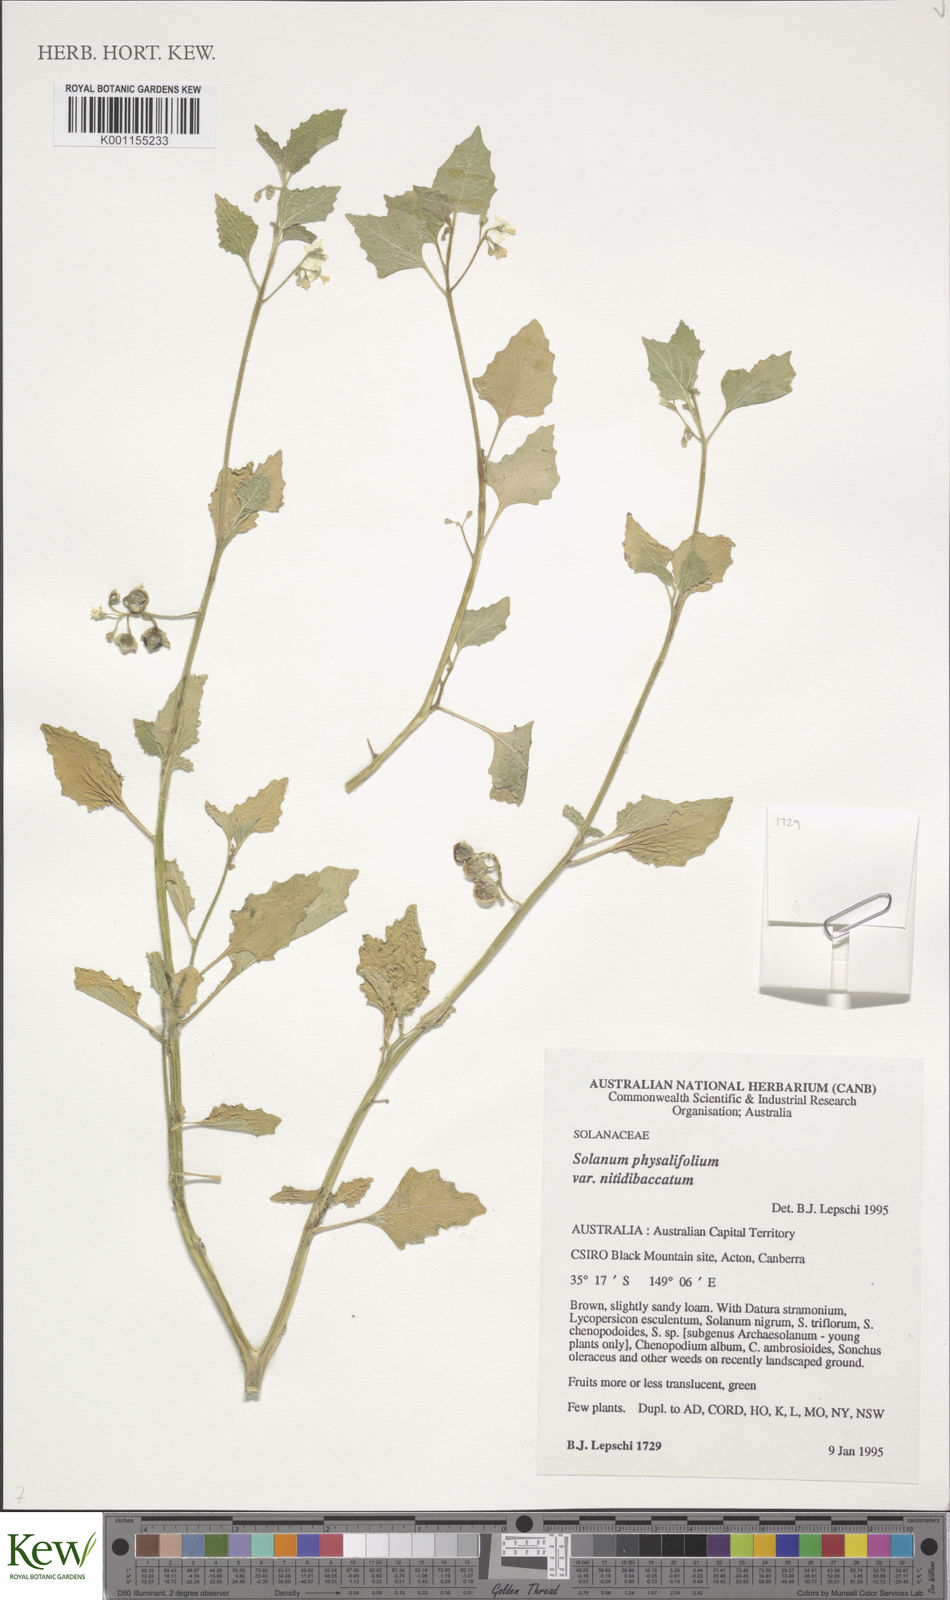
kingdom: Plantae
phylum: Tracheophyta
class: Magnoliopsida
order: Solanales
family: Solanaceae
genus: Solanum
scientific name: Solanum nitidibaccatum
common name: Hairy nightshade
